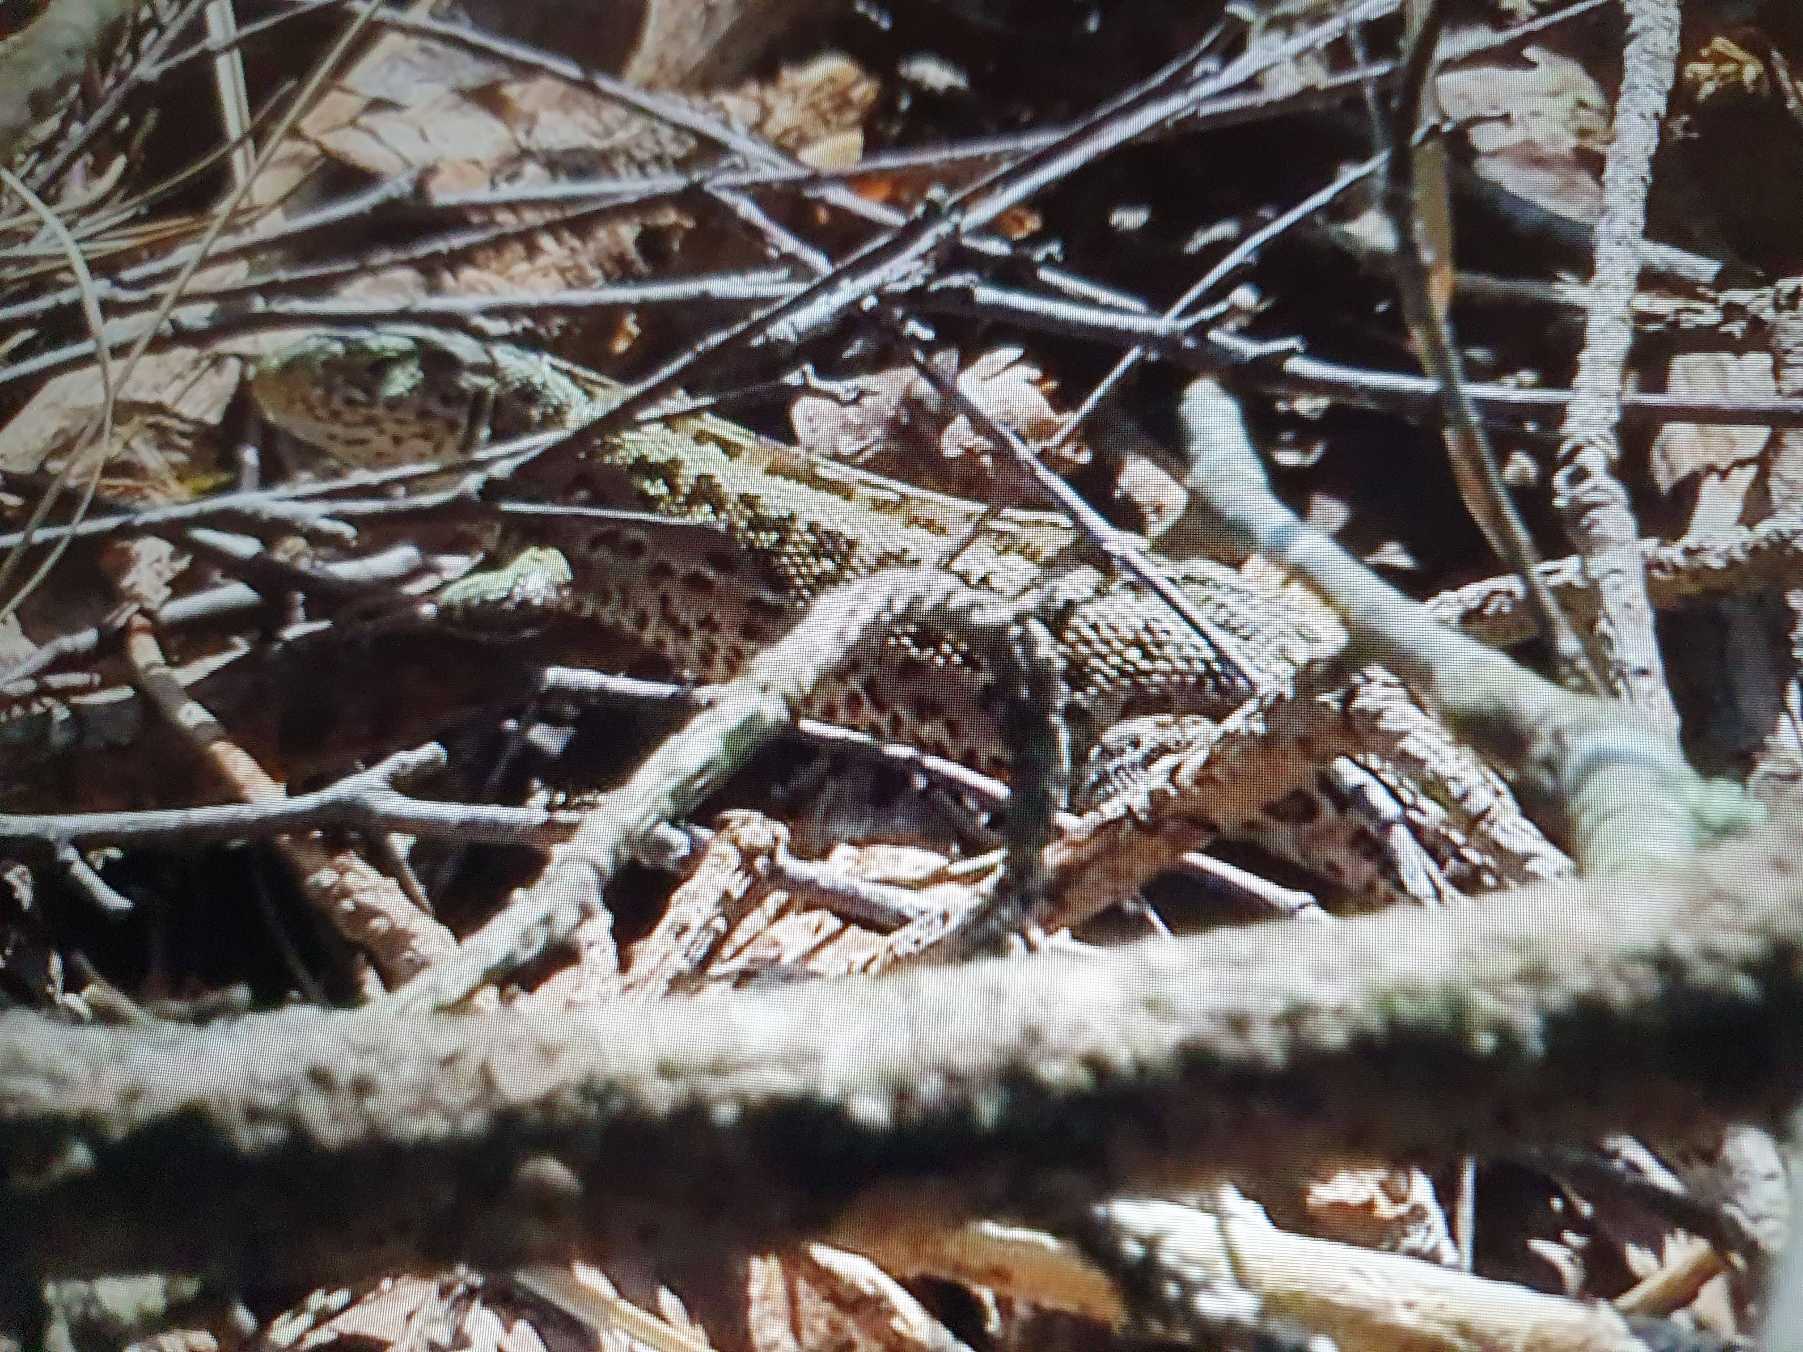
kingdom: Animalia
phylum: Chordata
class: Squamata
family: Lacertidae
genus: Lacerta
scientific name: Lacerta agilis
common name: Markfirben
